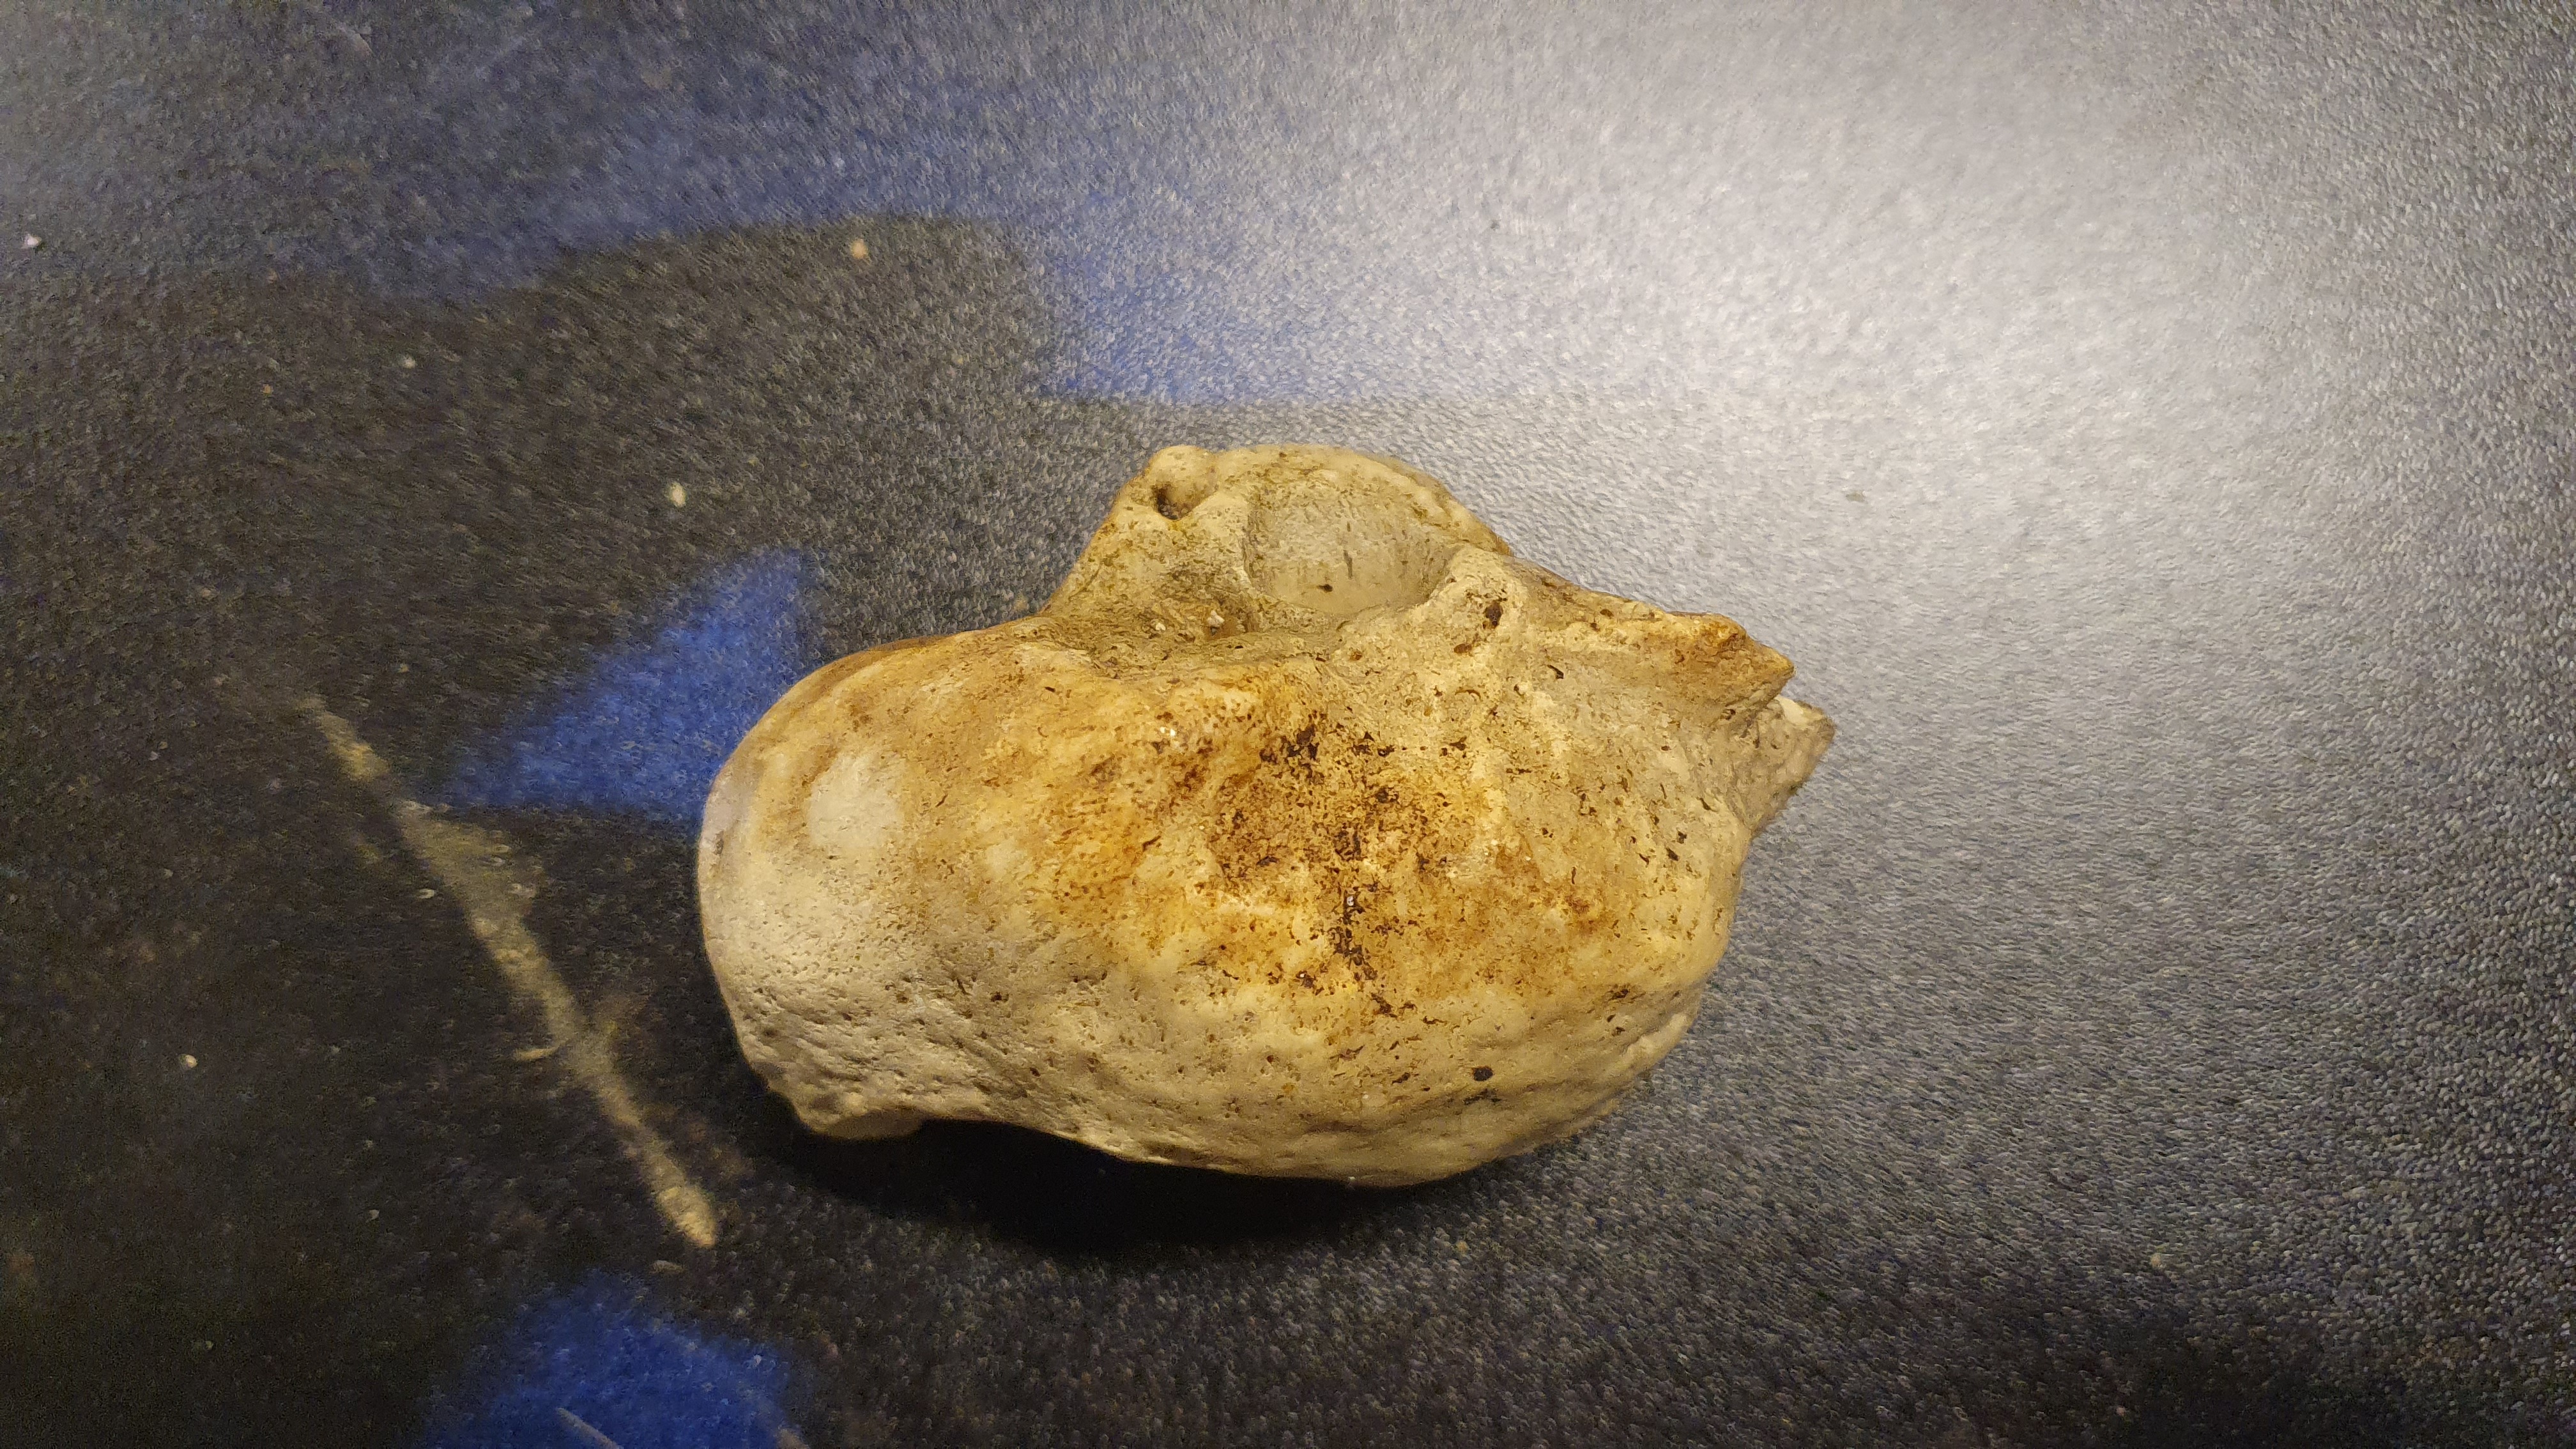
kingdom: Animalia
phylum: Chordata
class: Mammalia
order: Cetacea
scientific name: Cetacea
